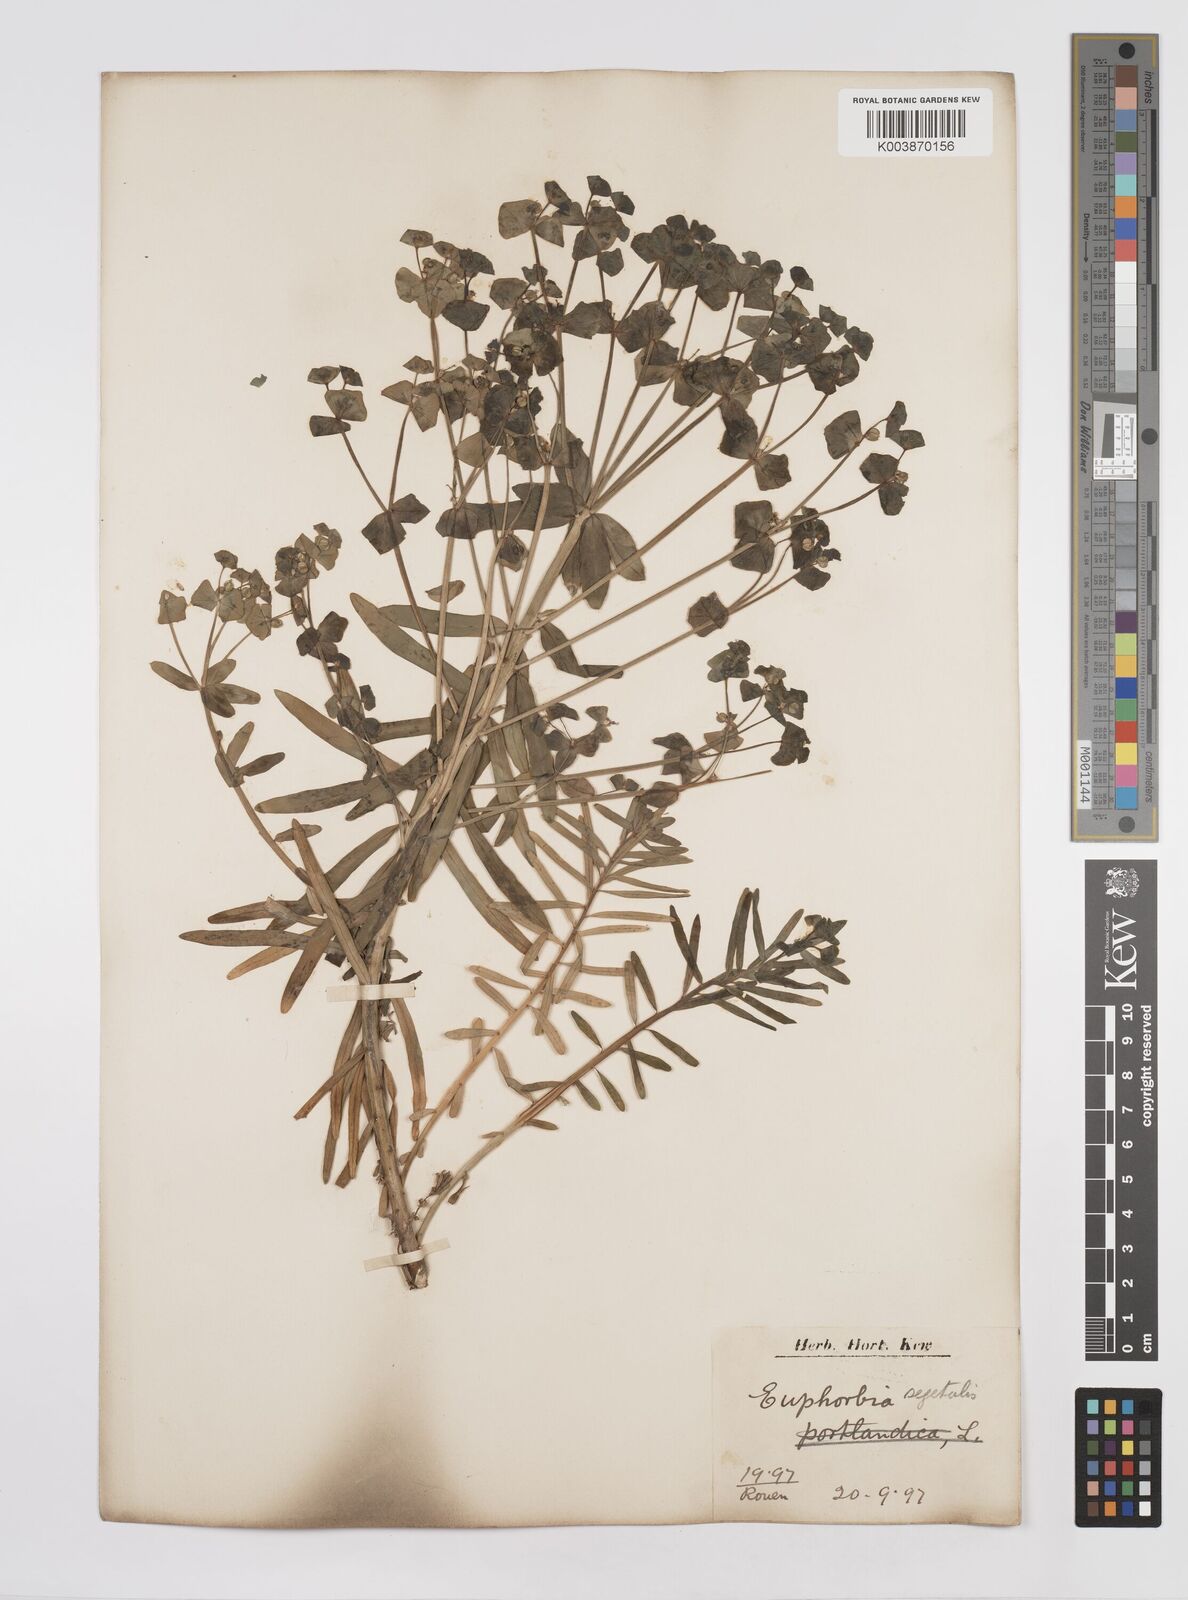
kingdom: Plantae
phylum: Tracheophyta
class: Magnoliopsida
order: Malpighiales
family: Euphorbiaceae
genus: Euphorbia
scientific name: Euphorbia segetalis
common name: Corn spurge
